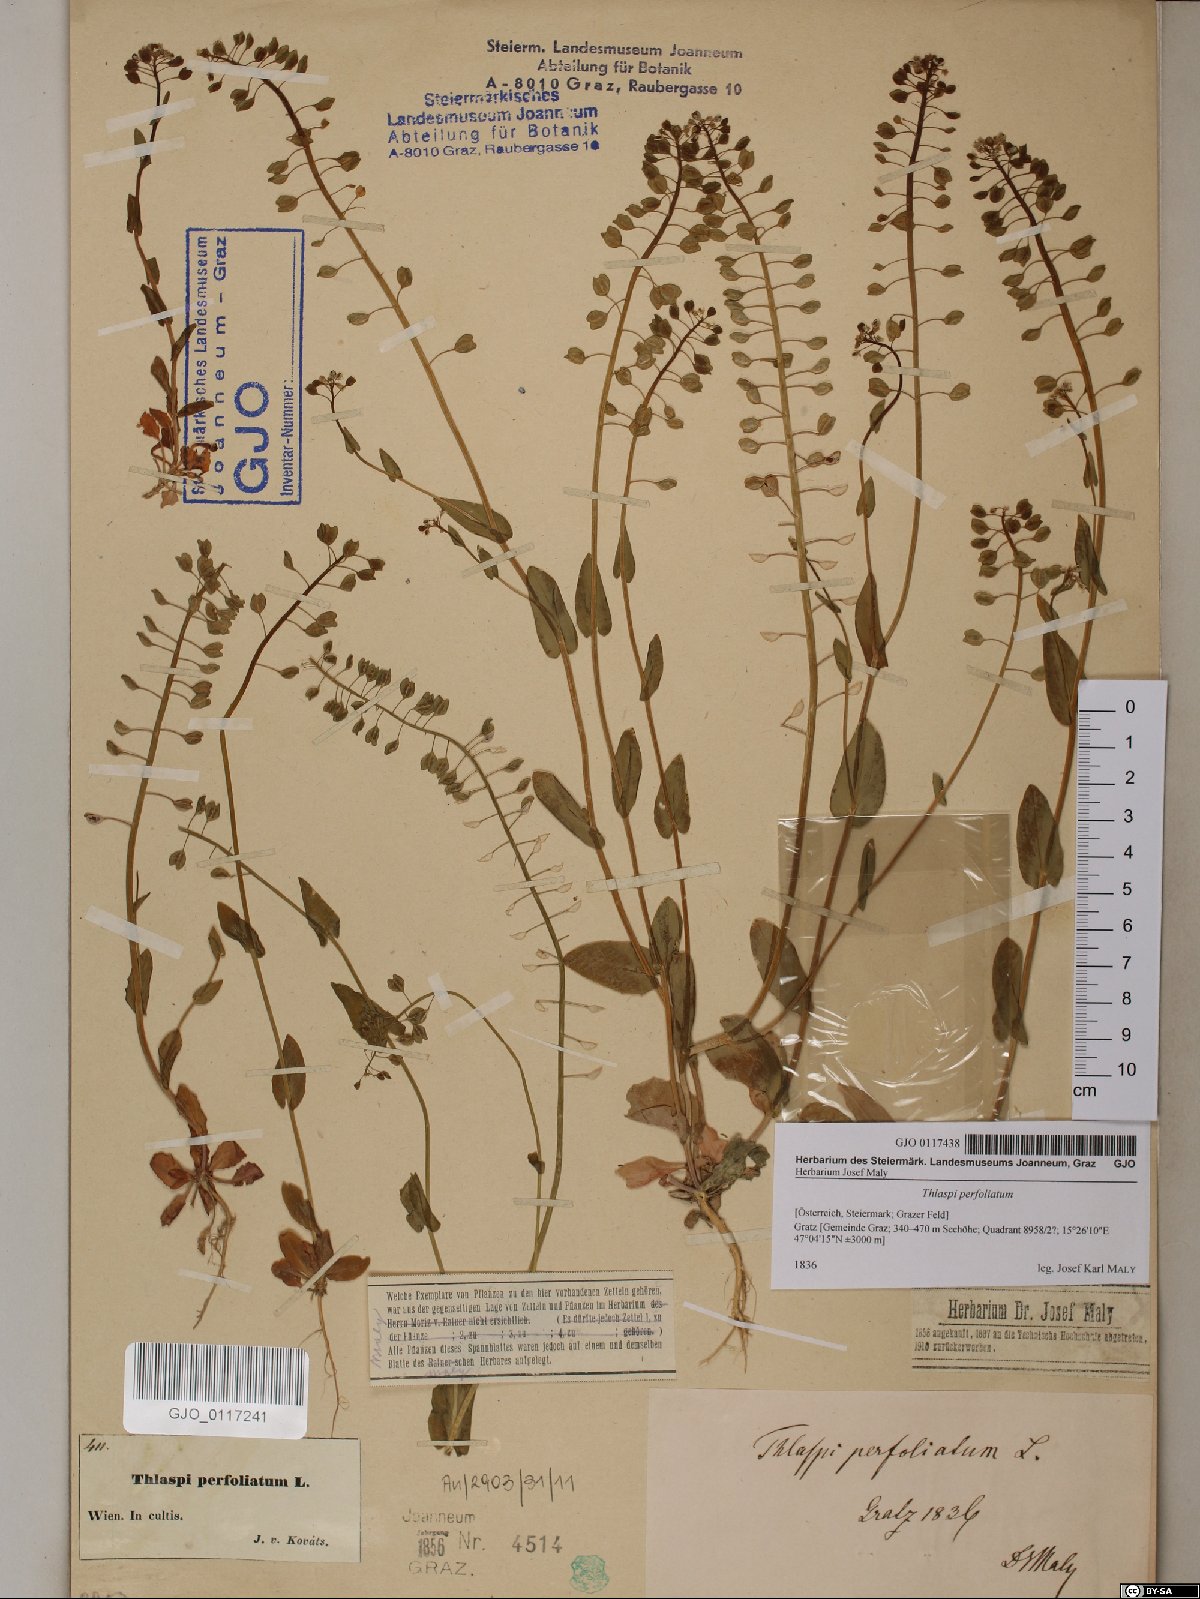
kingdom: Plantae
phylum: Tracheophyta
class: Magnoliopsida
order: Brassicales
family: Brassicaceae
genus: Noccaea
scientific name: Noccaea perfoliata
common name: Perfoliate pennycress
